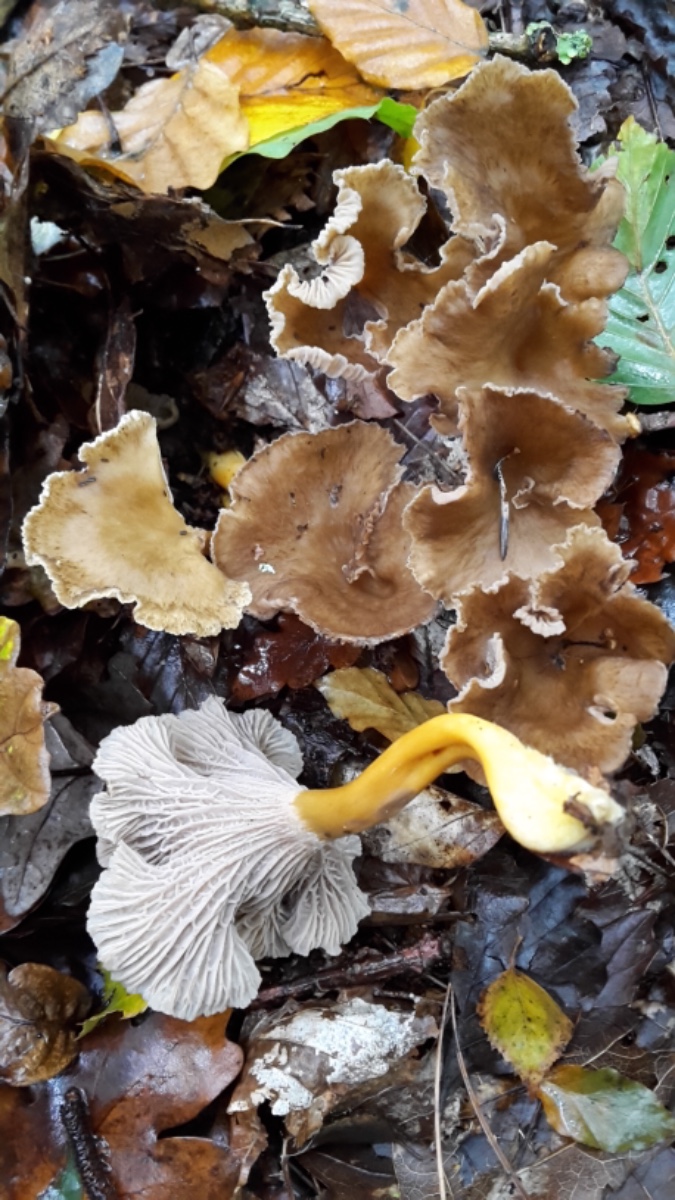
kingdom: Fungi
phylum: Basidiomycota
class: Agaricomycetes
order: Cantharellales
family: Hydnaceae
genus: Craterellus
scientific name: Craterellus tubaeformis
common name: tragt-kantarel
